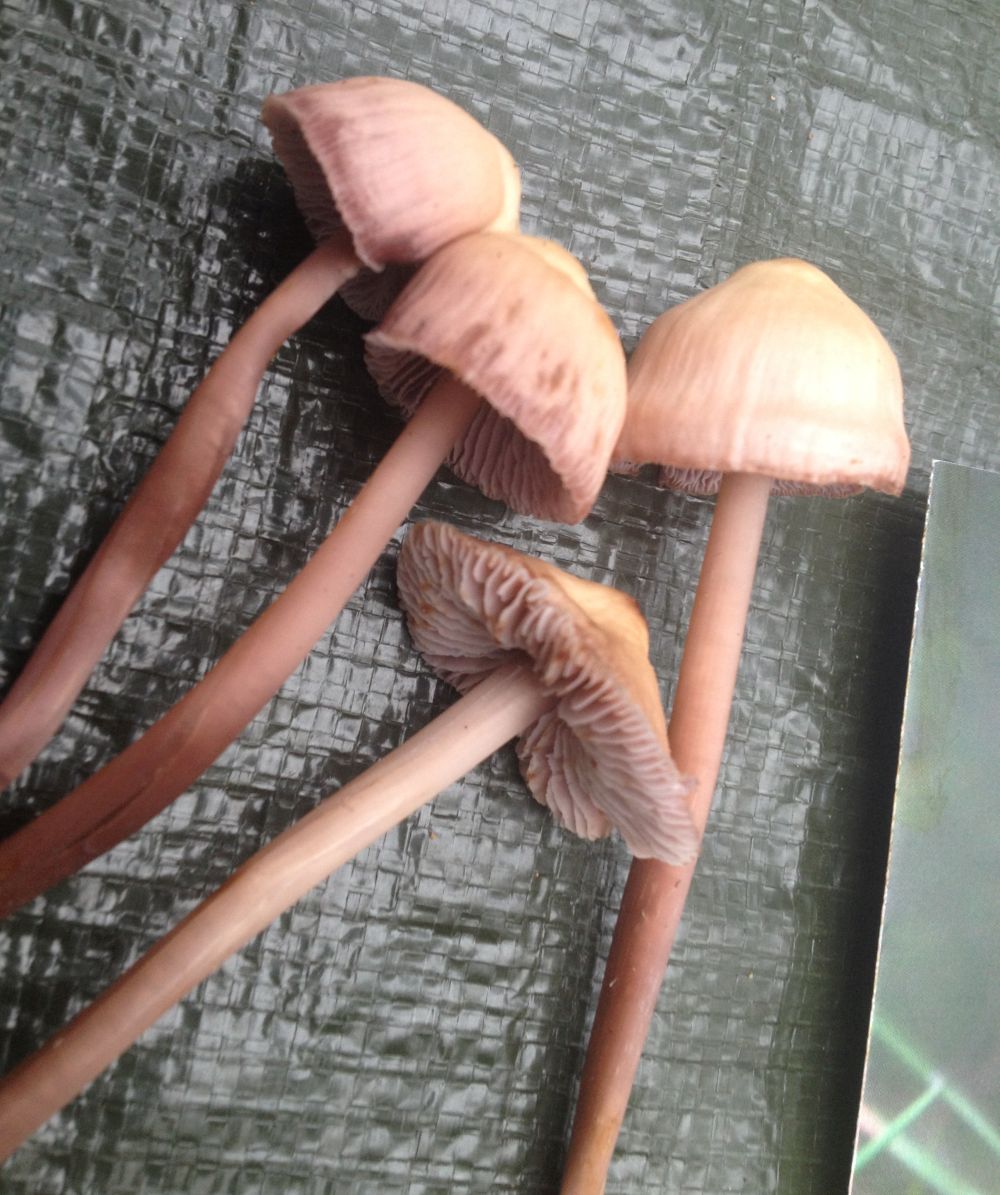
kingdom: Fungi
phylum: Basidiomycota
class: Agaricomycetes
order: Agaricales
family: Mycenaceae
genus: Prunulus
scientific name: Prunulus diosmus
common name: tobaks-huesvamp
